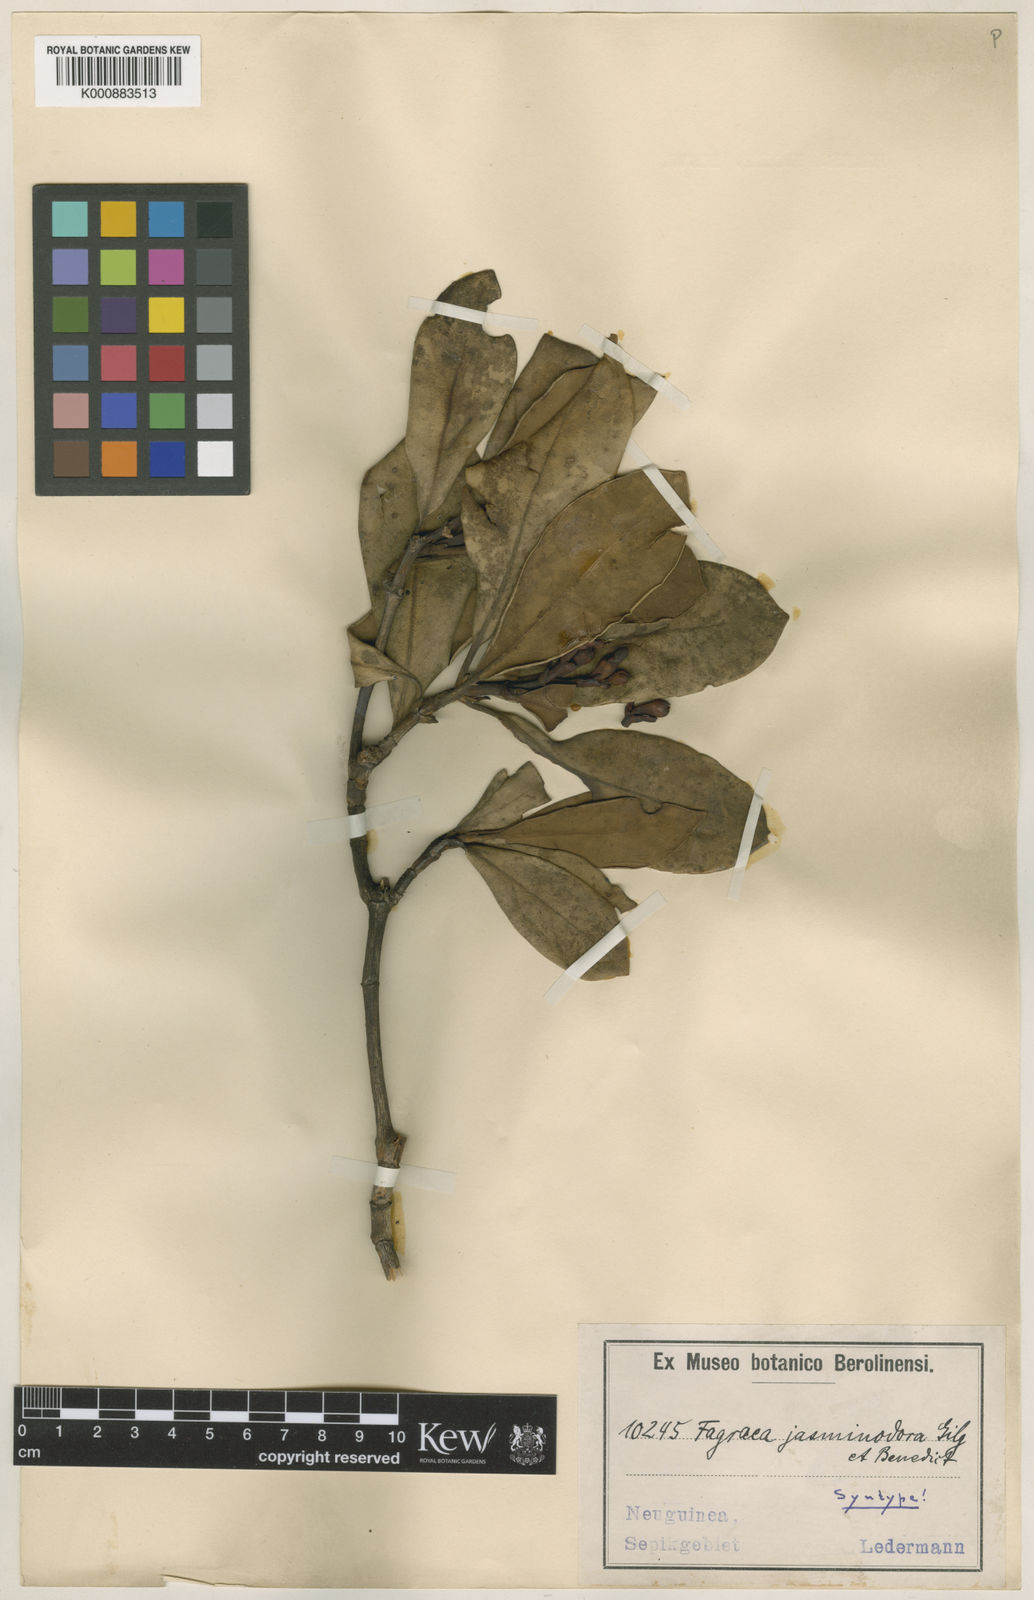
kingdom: Plantae
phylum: Tracheophyta
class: Magnoliopsida
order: Gentianales
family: Gentianaceae
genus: Fagraea
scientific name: Fagraea bodenii
